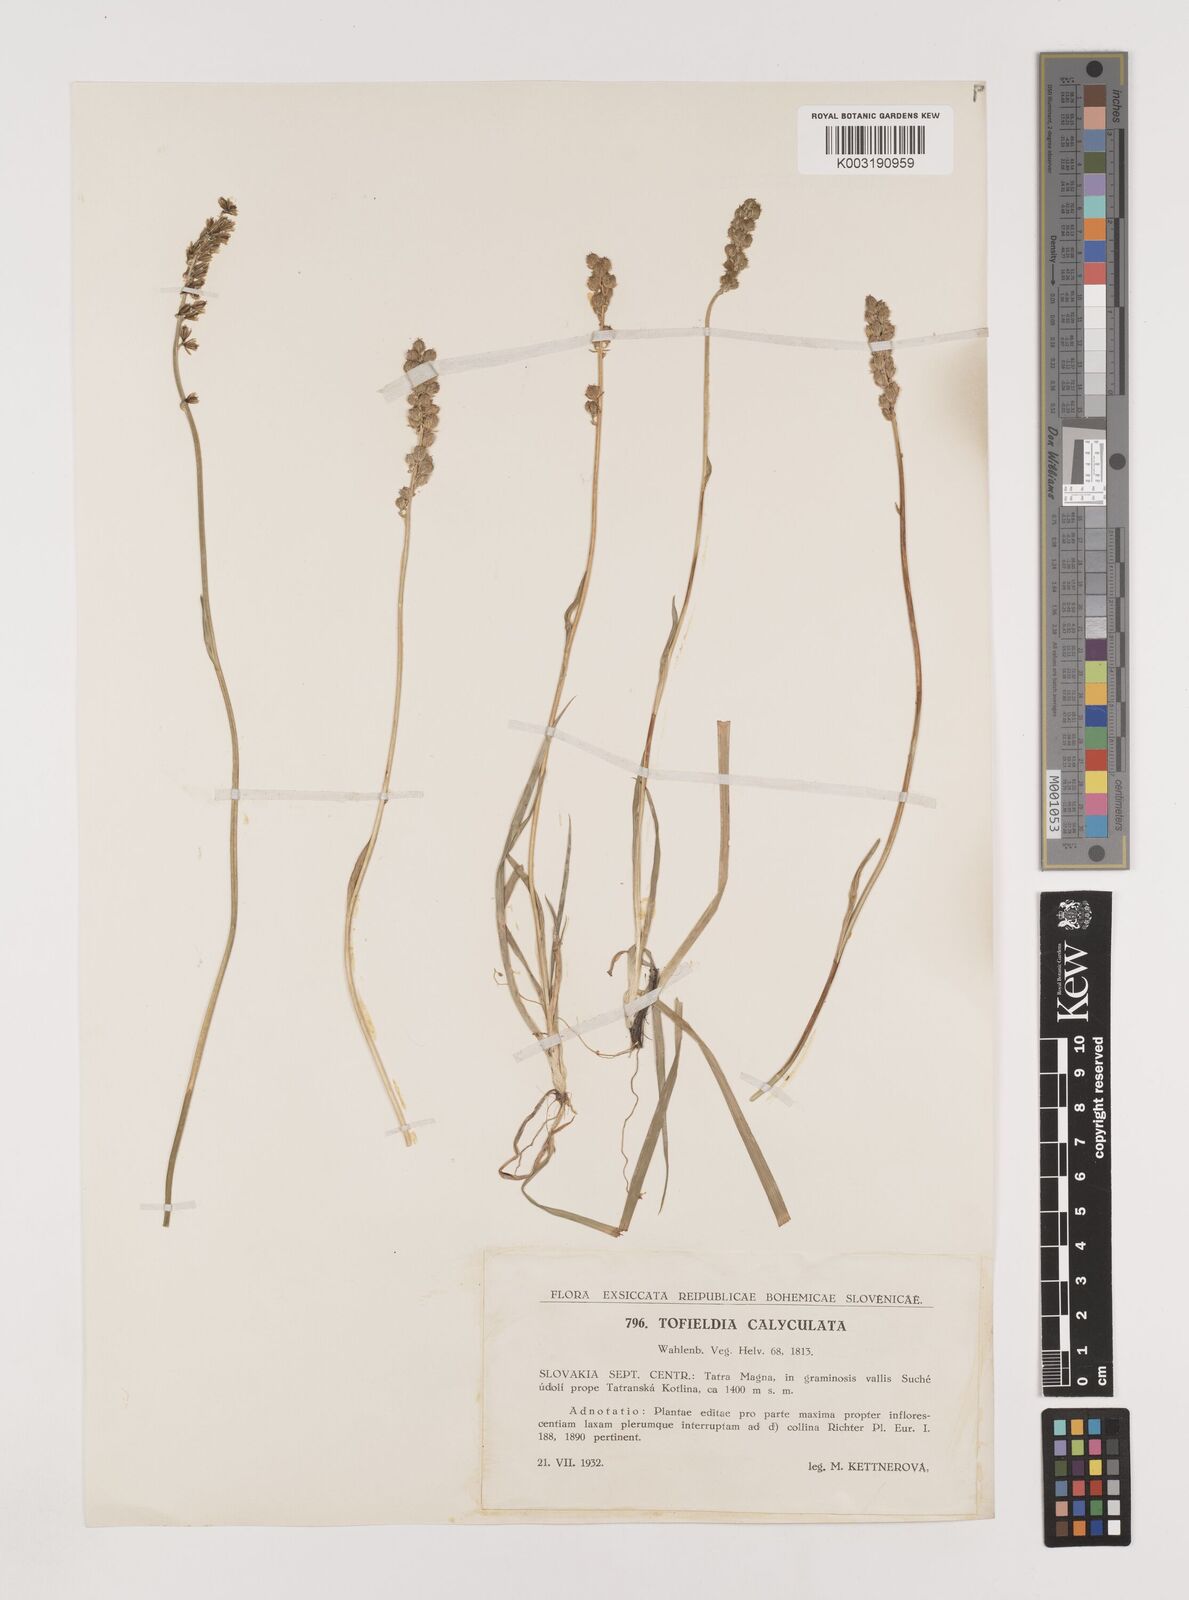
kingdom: Plantae
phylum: Tracheophyta
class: Liliopsida
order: Alismatales
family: Tofieldiaceae
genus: Tofieldia
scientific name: Tofieldia calyculata
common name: German-asphodel
